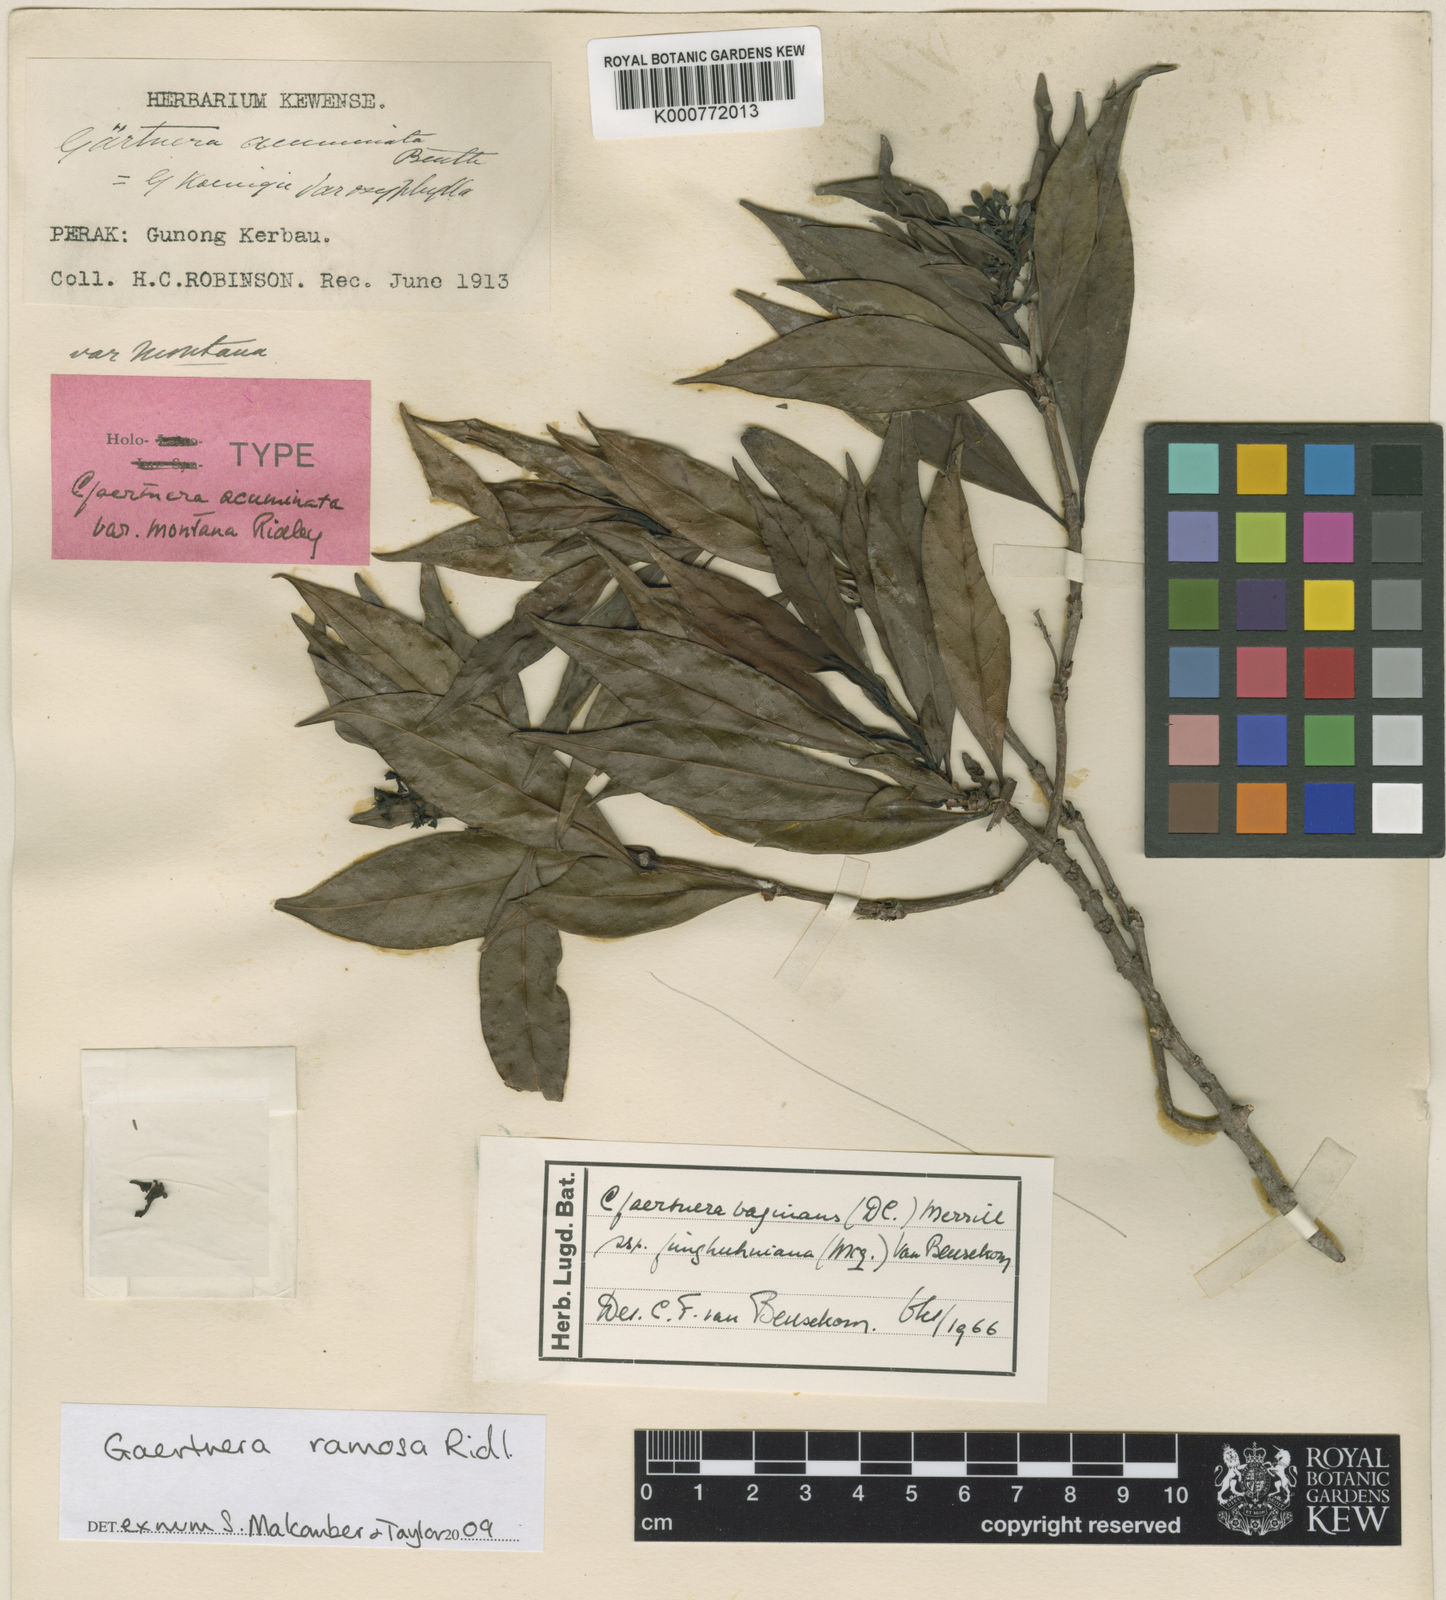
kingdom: Plantae
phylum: Tracheophyta
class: Magnoliopsida
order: Gentianales
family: Rubiaceae
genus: Gaertnera
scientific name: Gaertnera ramosa
